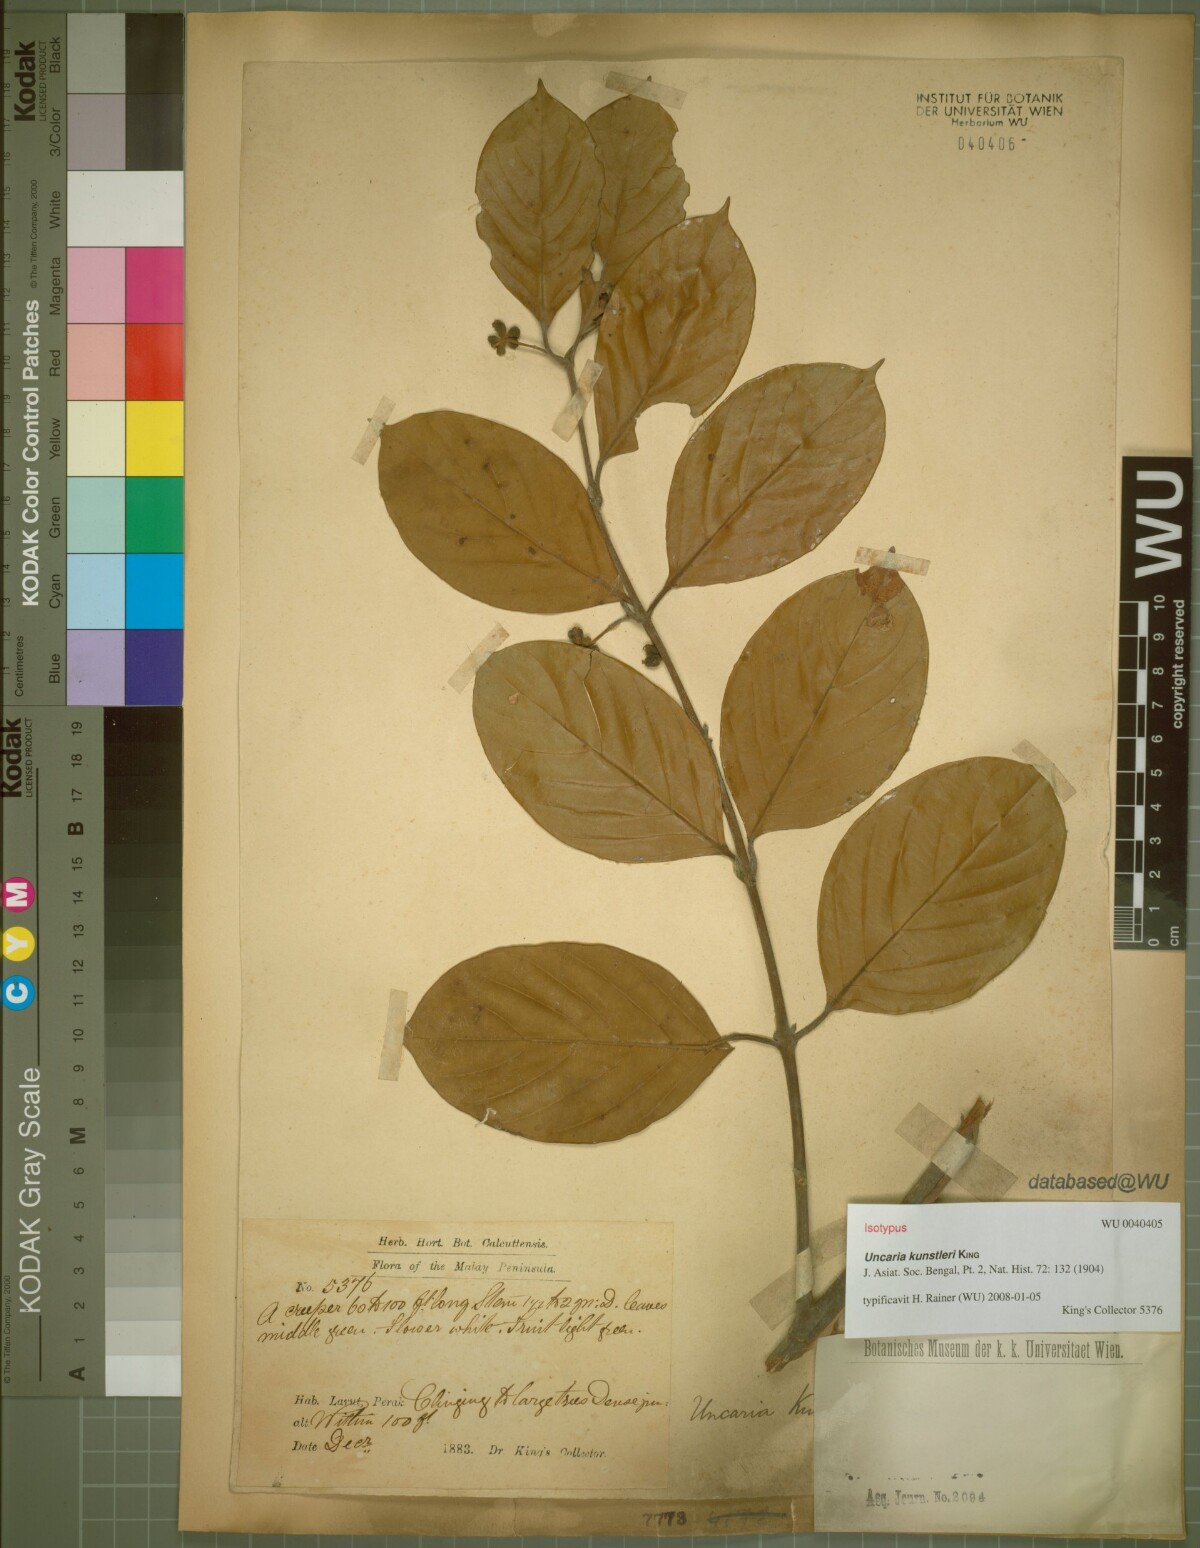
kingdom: Plantae
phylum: Tracheophyta
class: Magnoliopsida
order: Gentianales
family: Rubiaceae
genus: Uncaria
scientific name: Uncaria kunstleri
